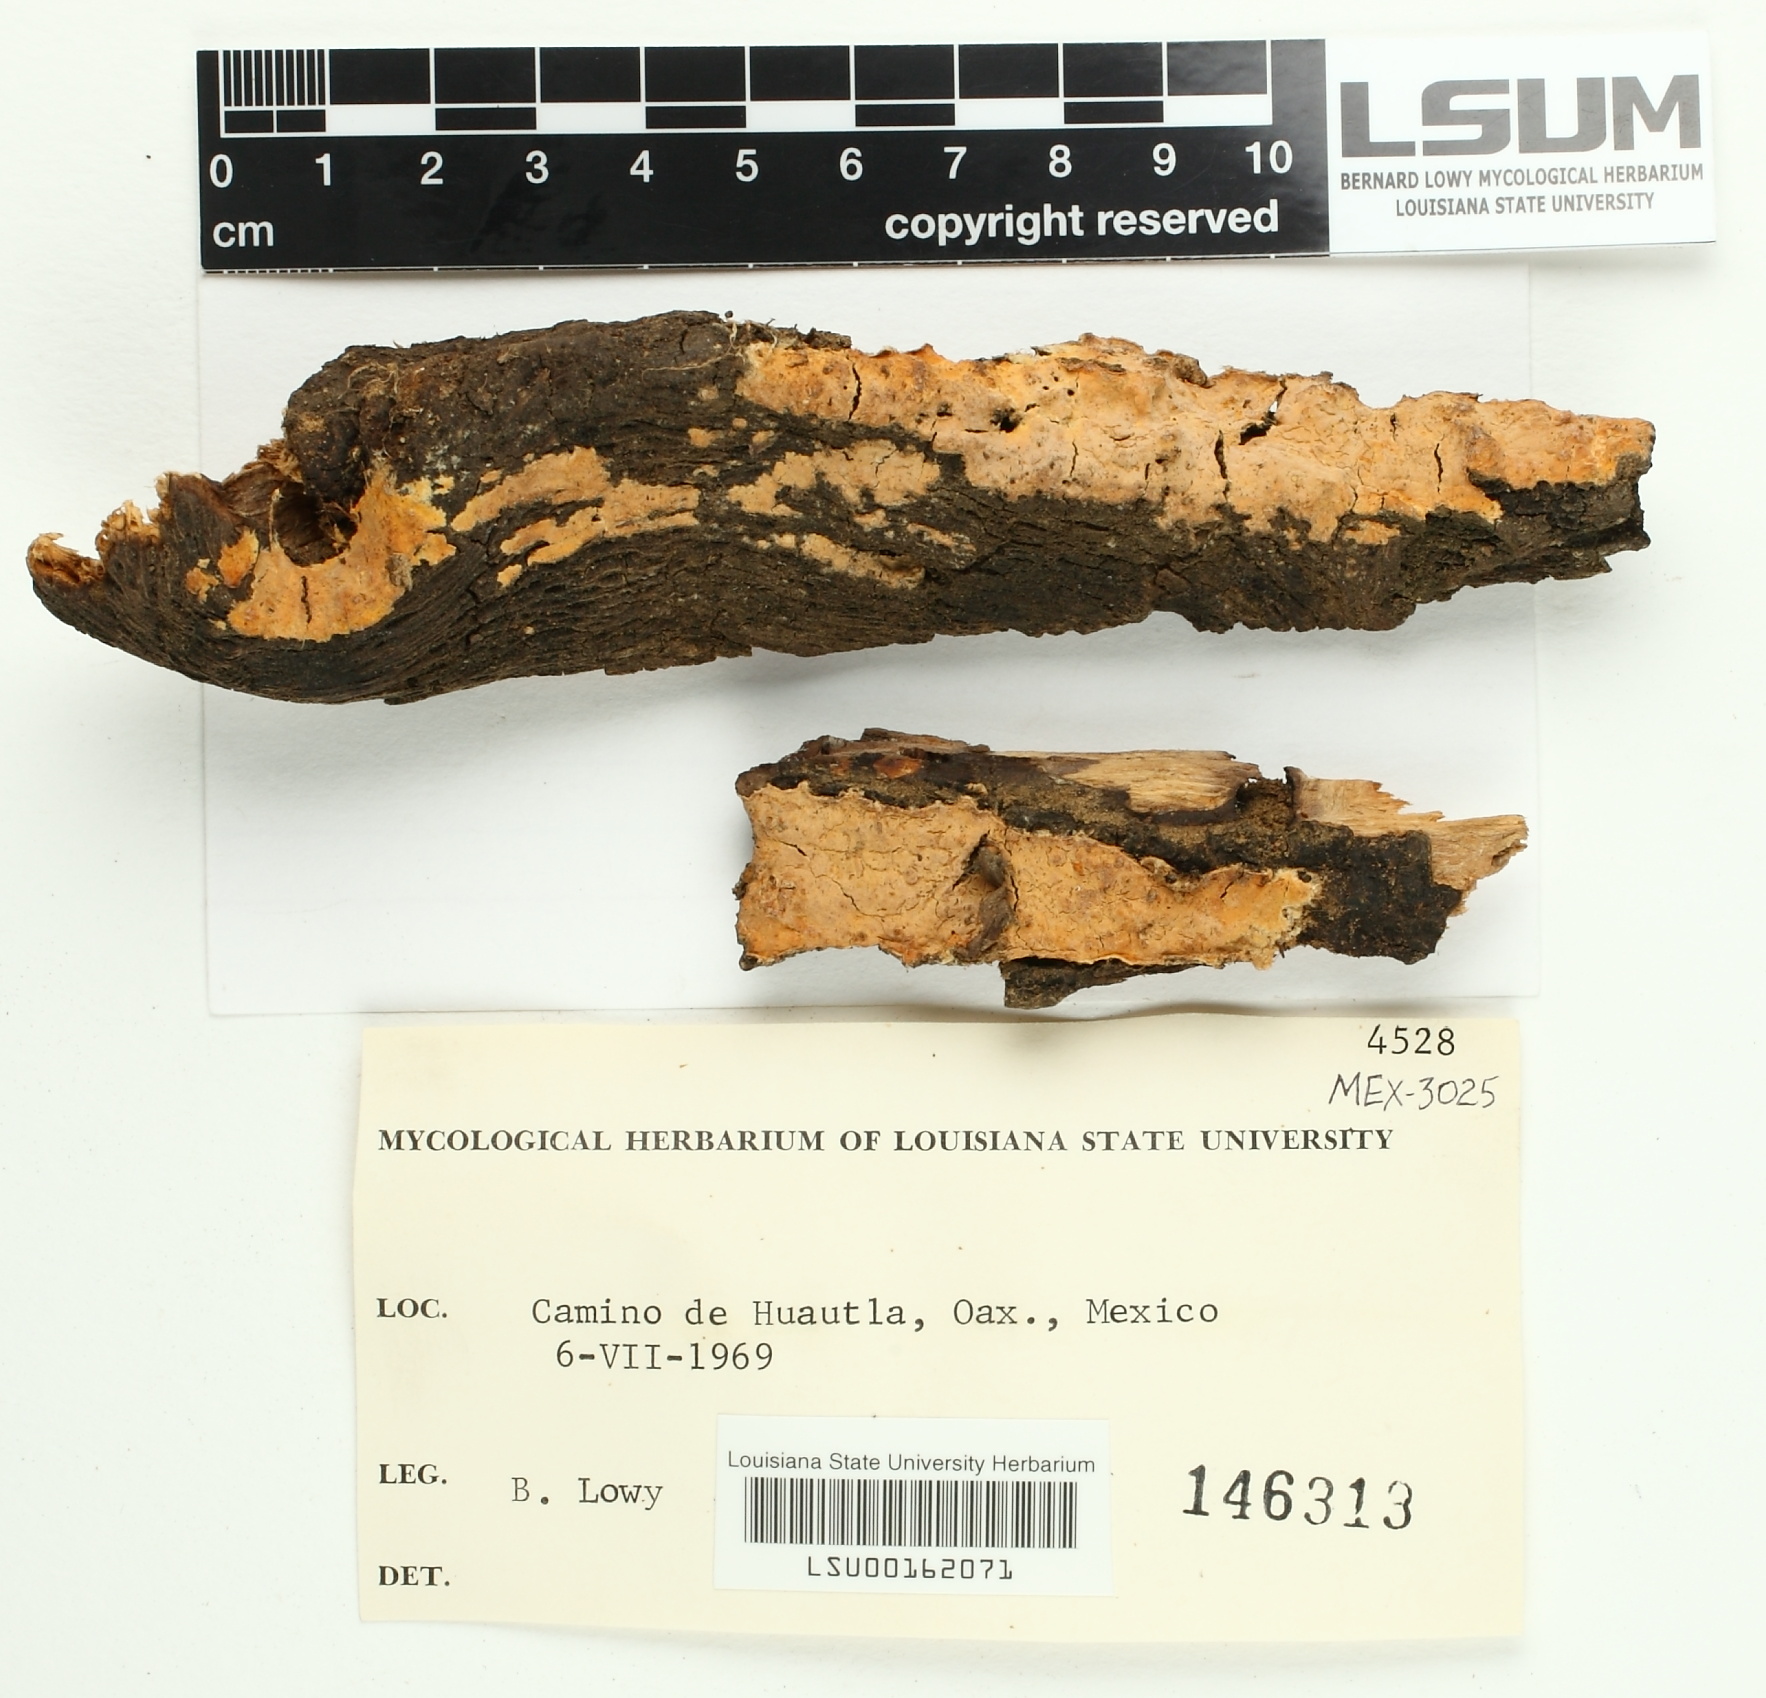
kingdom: Fungi
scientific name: Fungi
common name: Fungi
